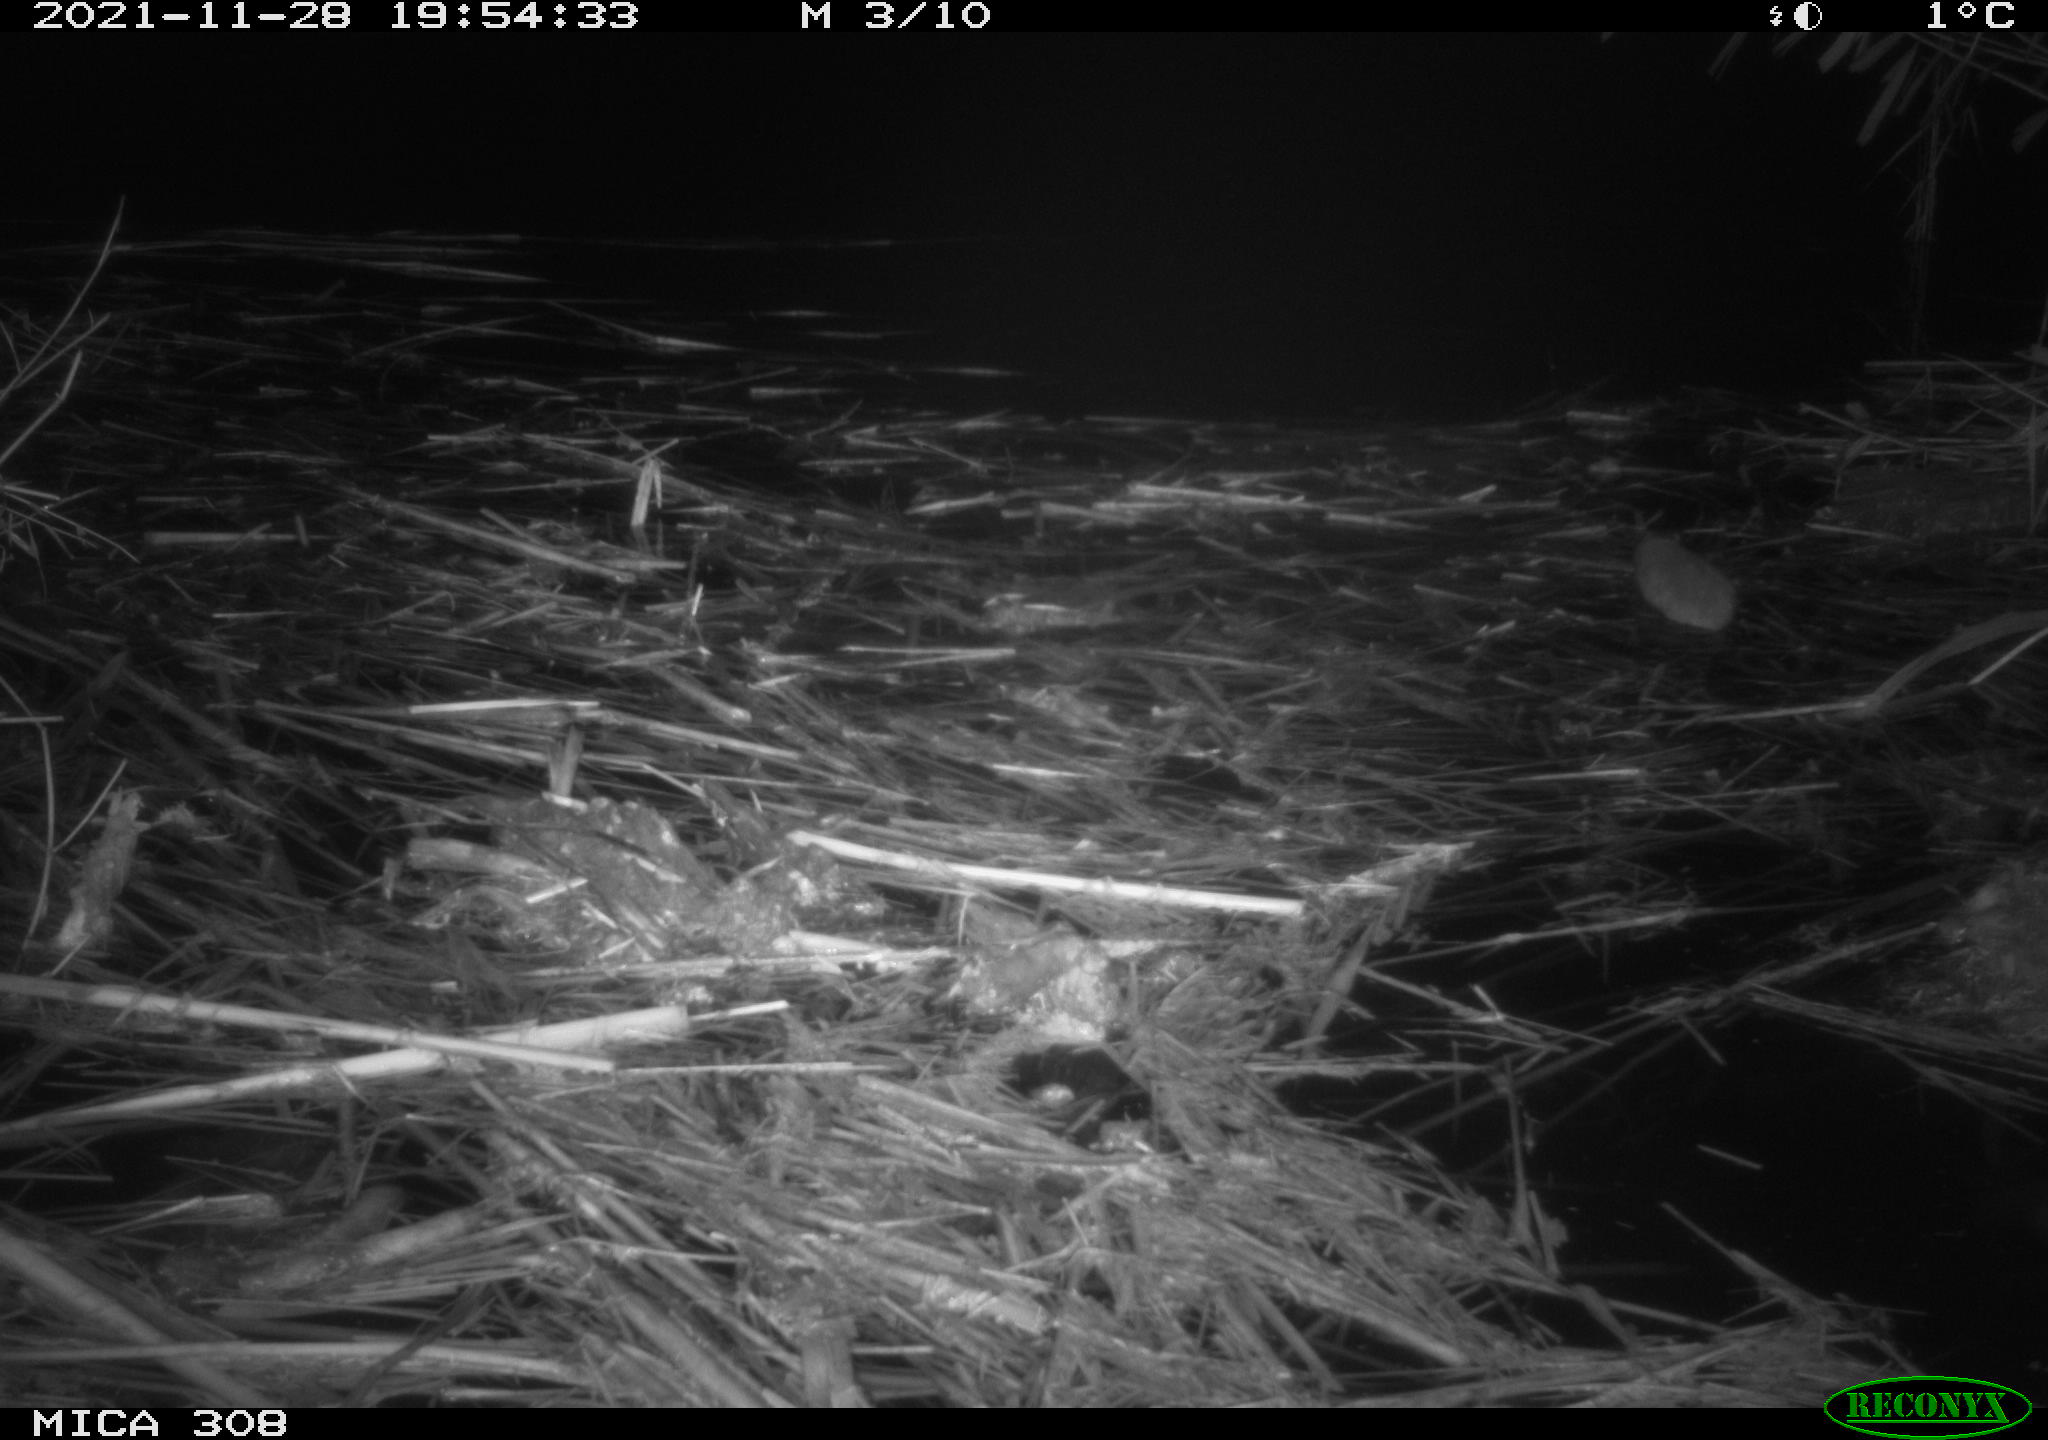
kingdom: Animalia
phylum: Chordata
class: Mammalia
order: Rodentia
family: Muridae
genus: Rattus
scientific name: Rattus norvegicus
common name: Brown rat
